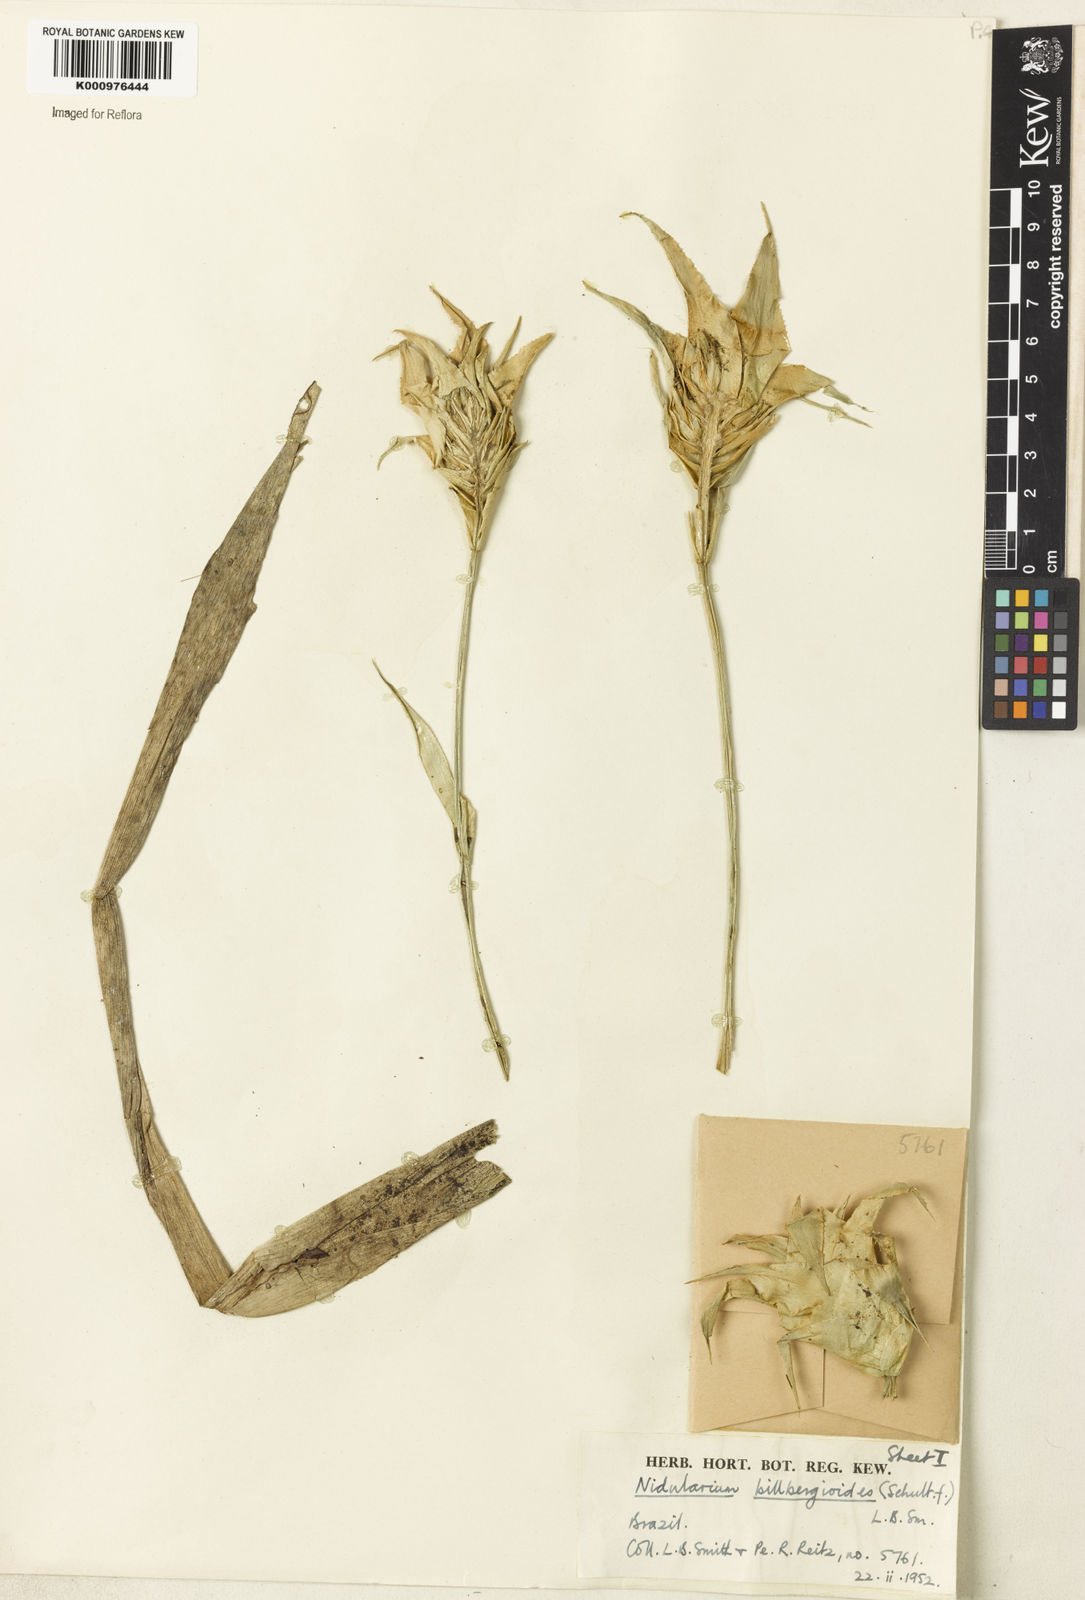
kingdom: Plantae
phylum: Tracheophyta
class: Liliopsida
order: Poales
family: Bromeliaceae
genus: Nidularium
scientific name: Nidularium
